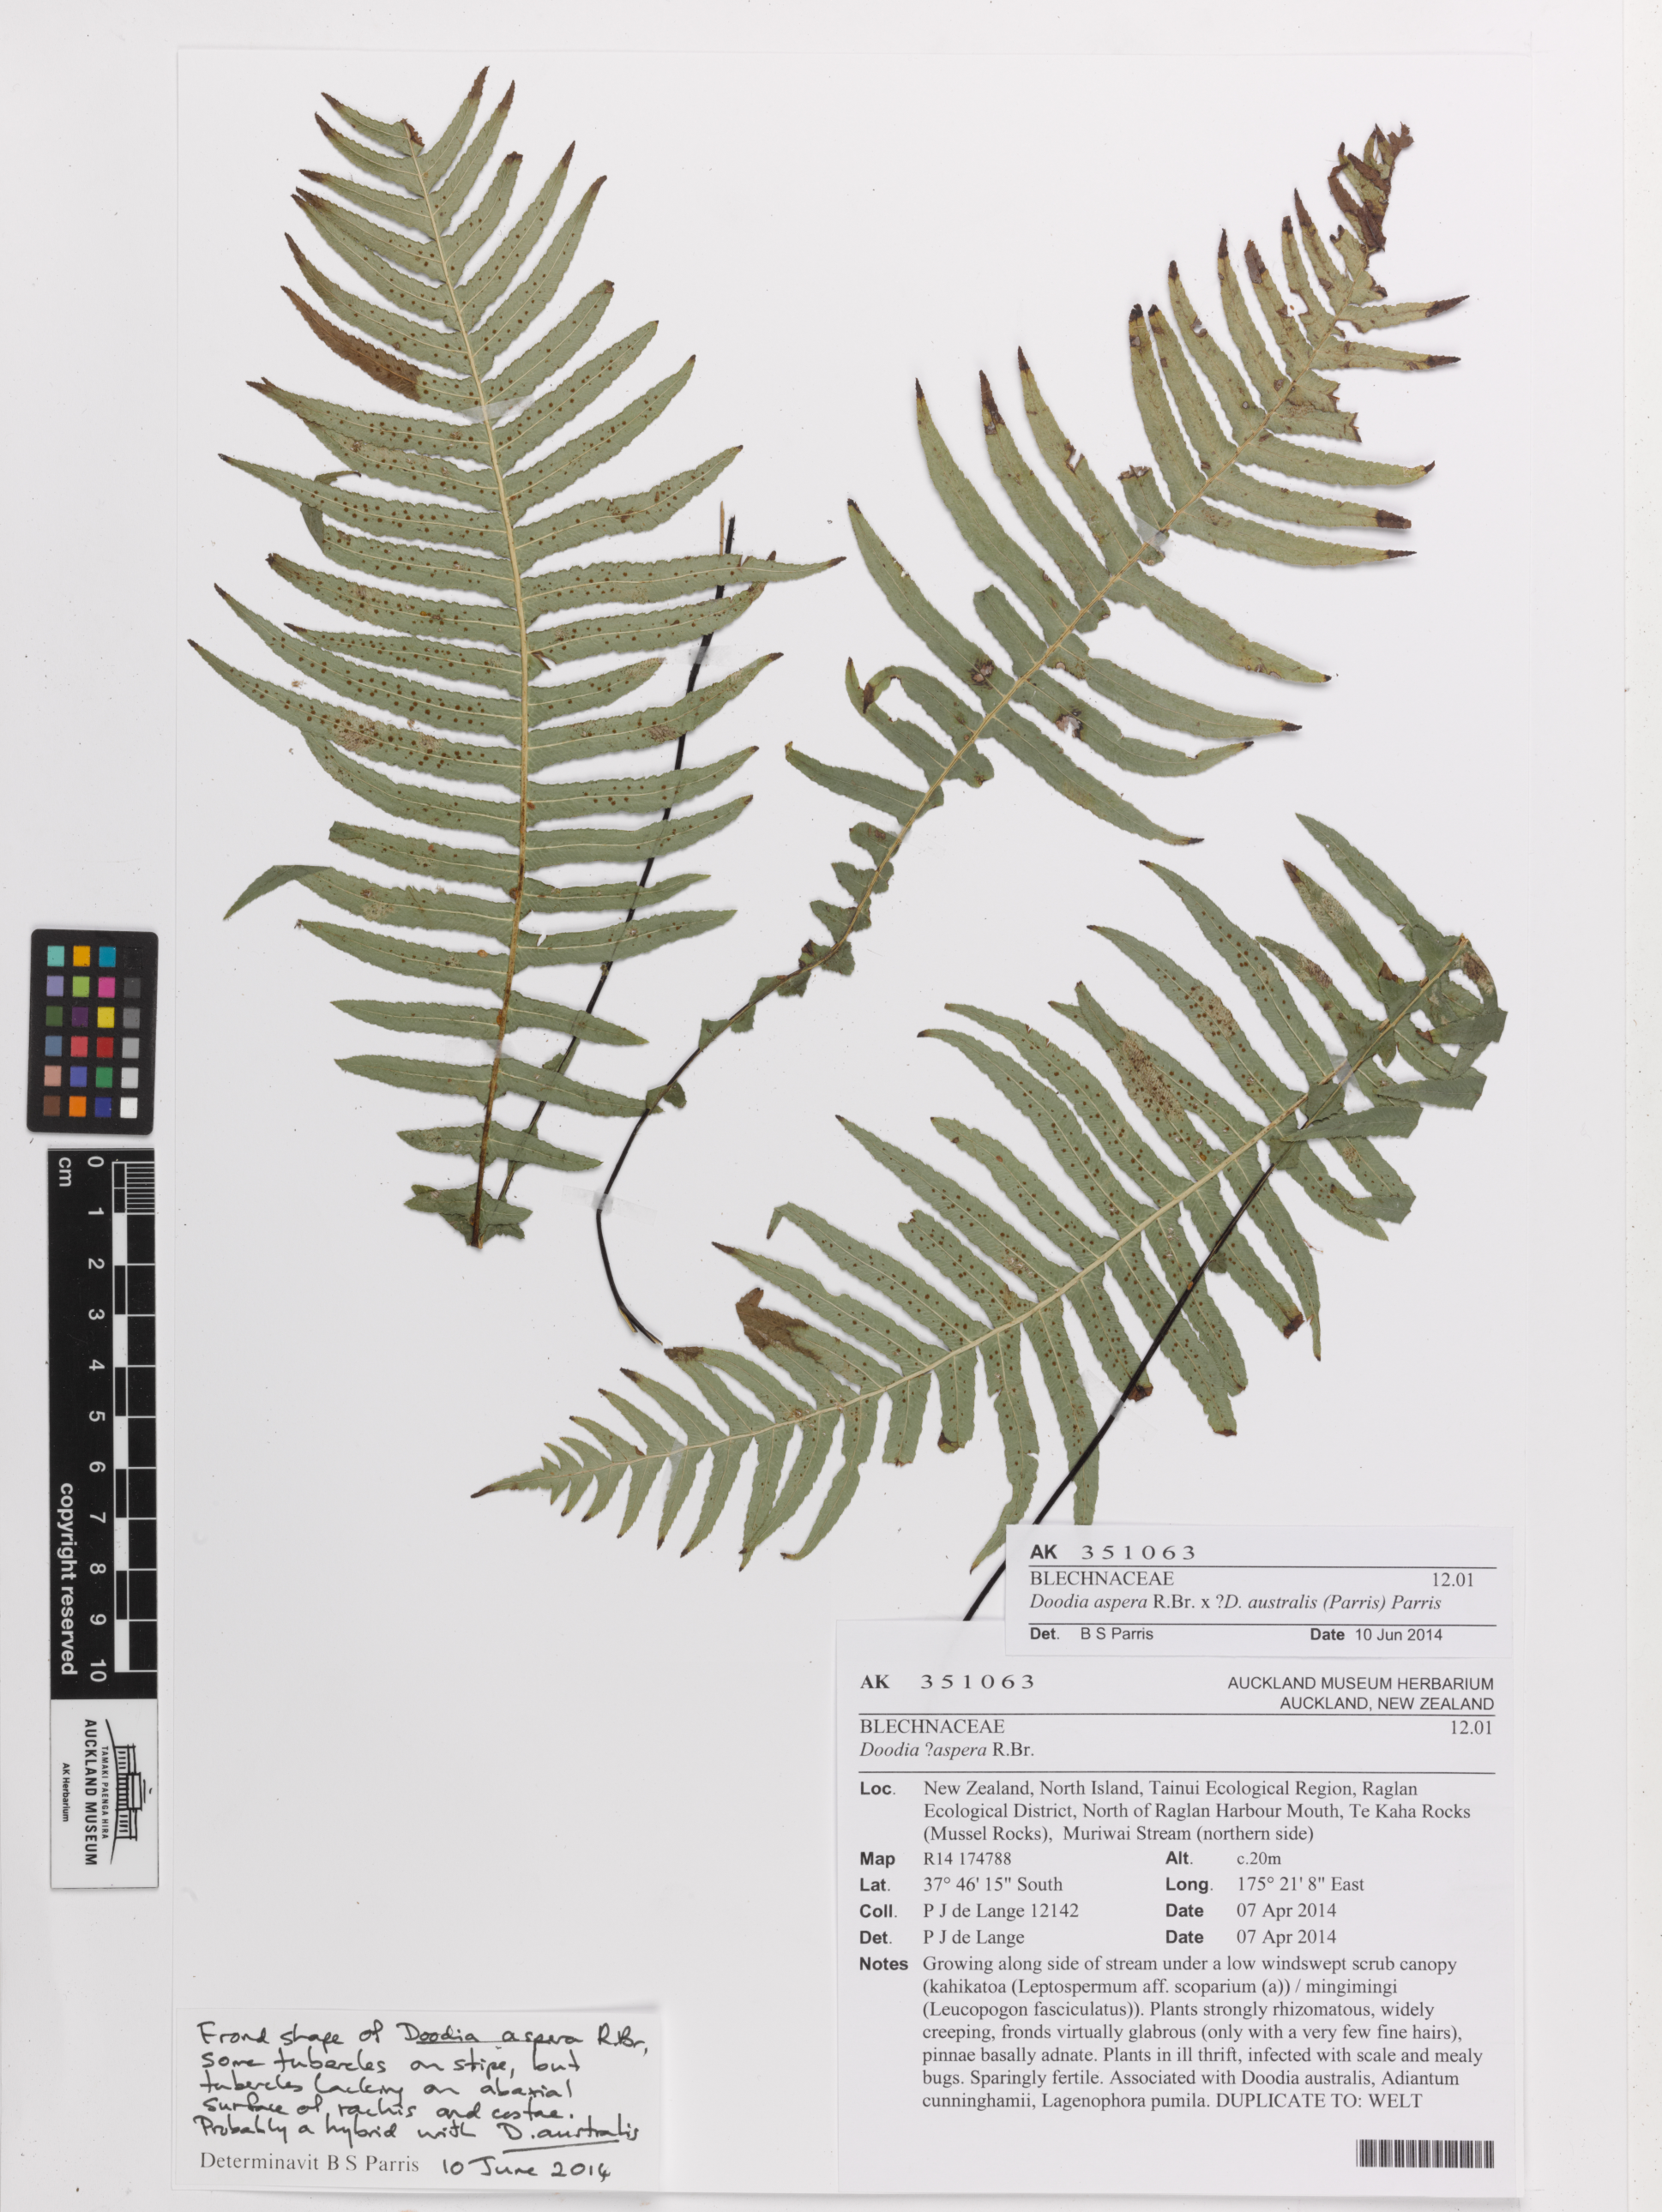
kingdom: Plantae
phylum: Tracheophyta
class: Polypodiopsida
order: Polypodiales
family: Blechnaceae
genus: Doodia
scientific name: Doodia
